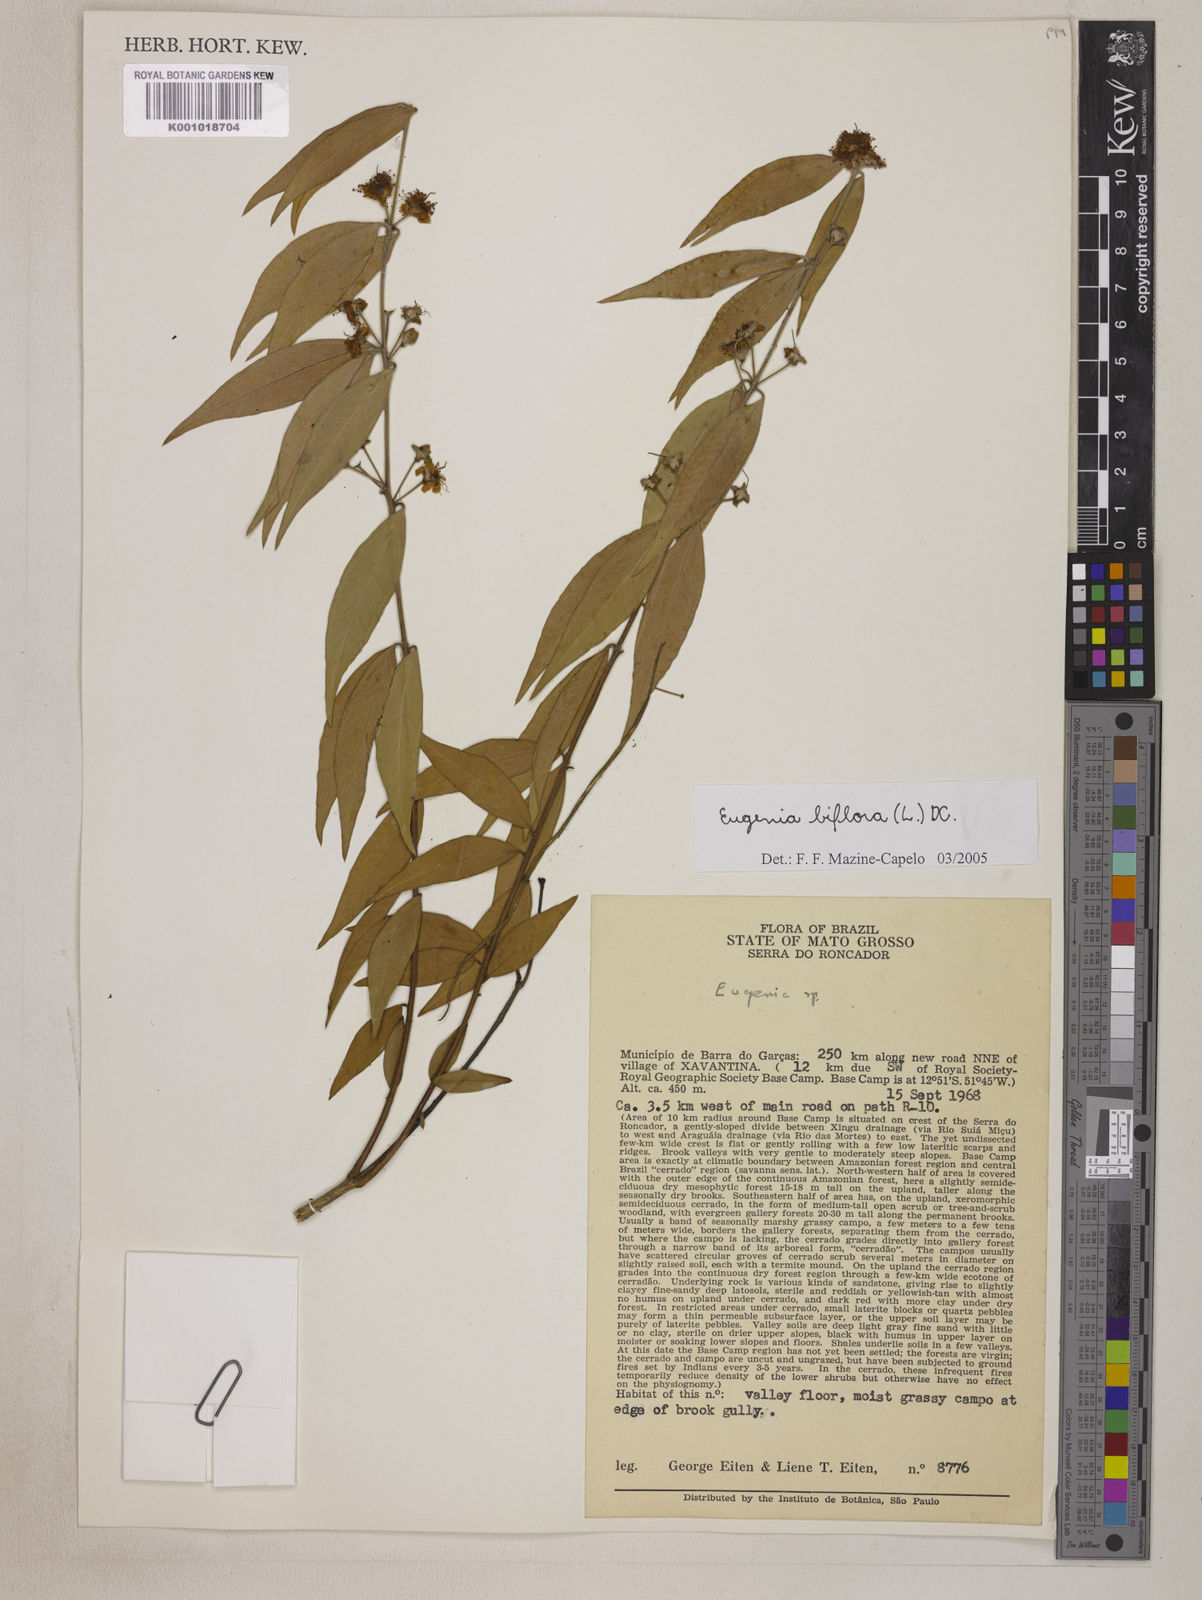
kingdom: Plantae
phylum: Tracheophyta
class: Magnoliopsida
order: Myrtales
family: Myrtaceae
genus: Eugenia
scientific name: Eugenia biflora
